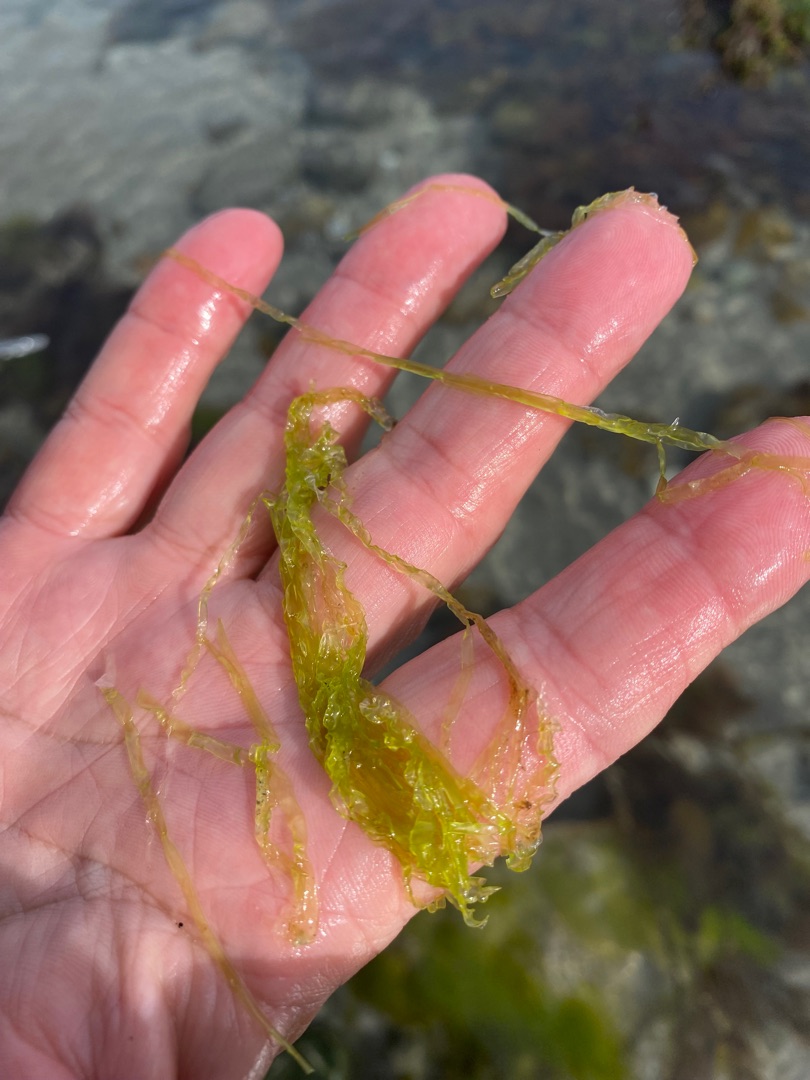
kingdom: Plantae
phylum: Chlorophyta
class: Ulvophyceae
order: Ulvales
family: Ulvaceae
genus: Ulva
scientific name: Ulva
